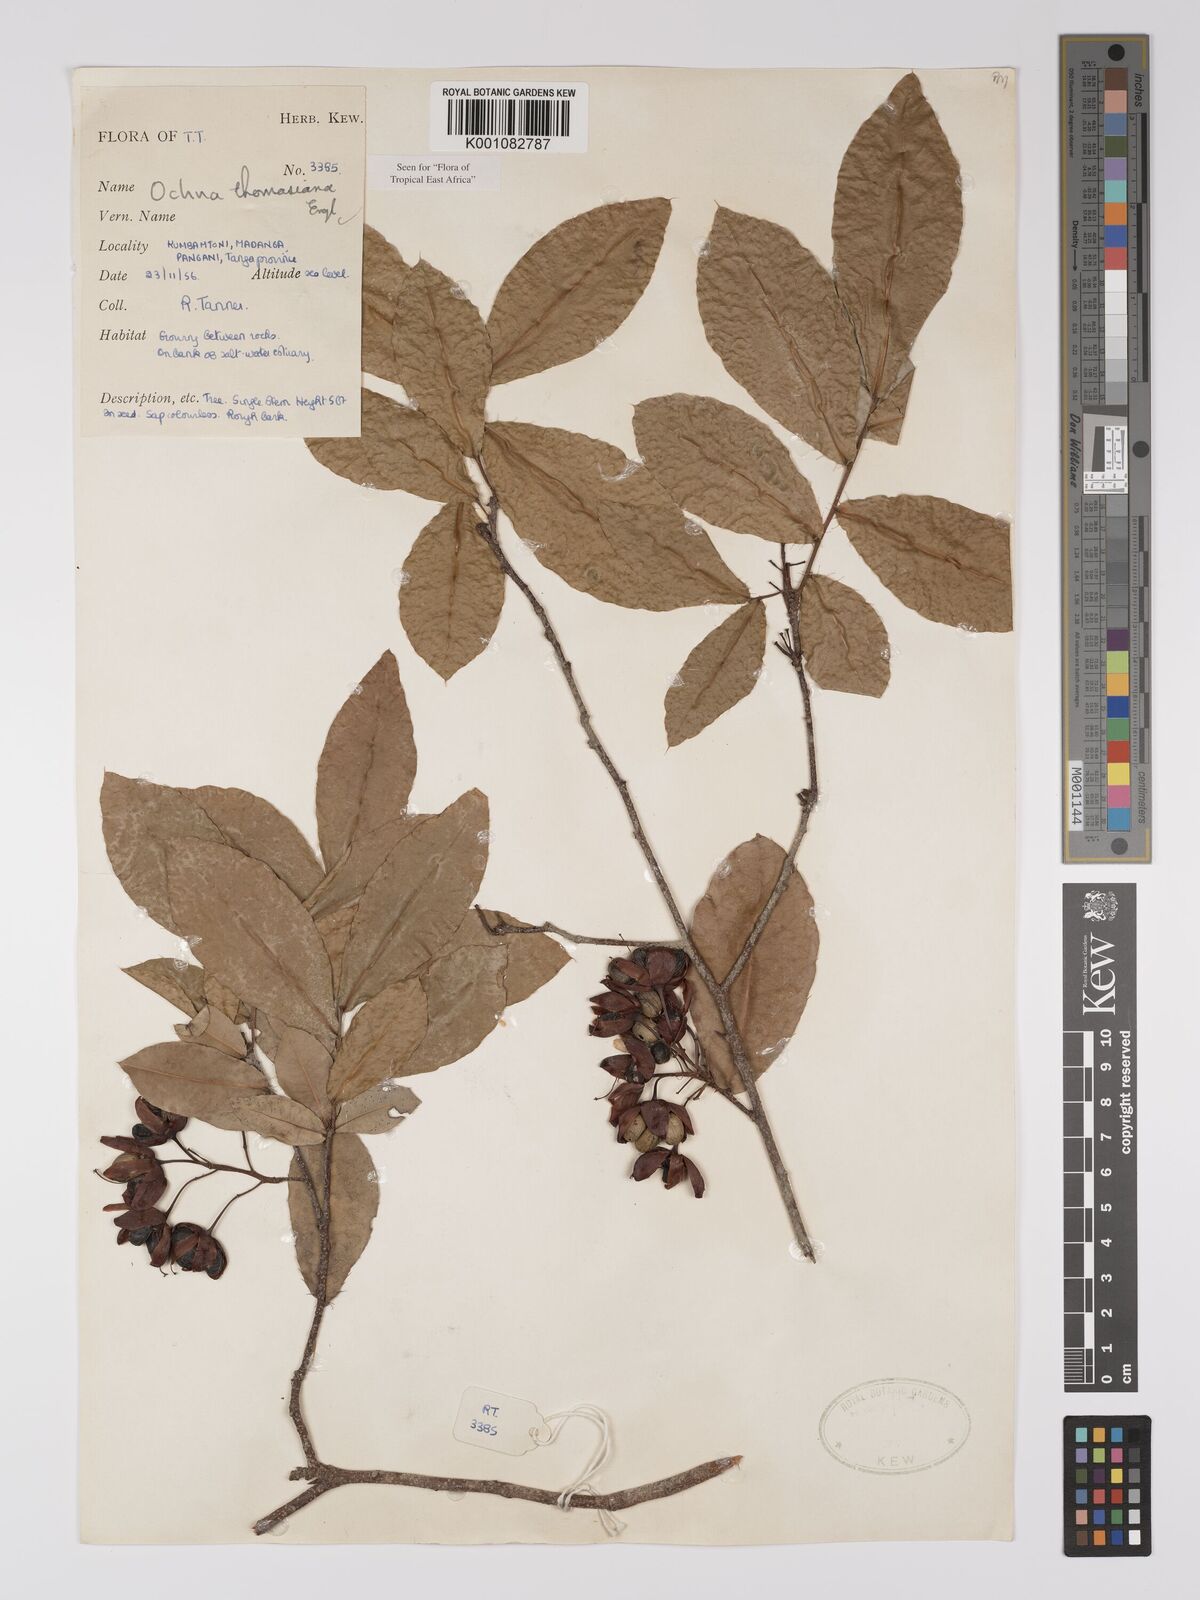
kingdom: Plantae
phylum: Tracheophyta
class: Magnoliopsida
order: Malpighiales
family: Ochnaceae
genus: Ochna
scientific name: Ochna thomasiana
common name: Thomas' bird's-eye bush
